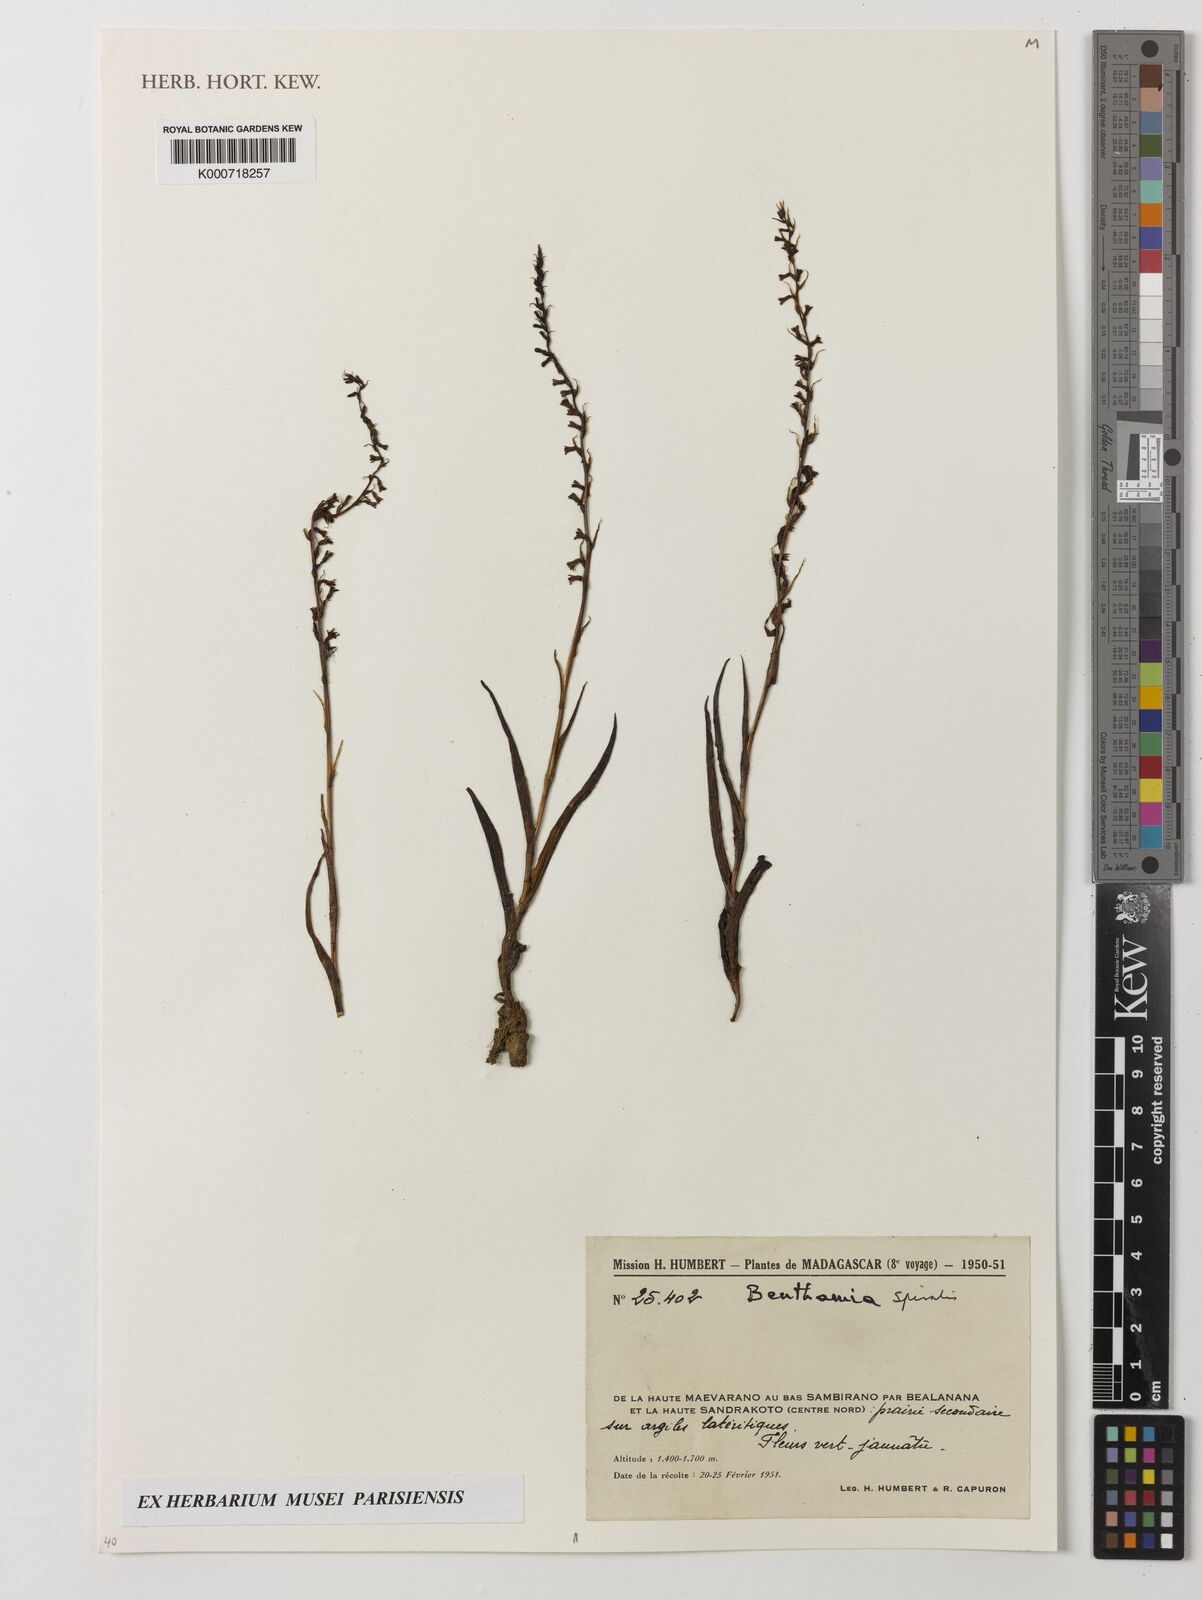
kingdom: Plantae
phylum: Tracheophyta
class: Liliopsida
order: Asparagales
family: Orchidaceae
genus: Benthamia
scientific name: Benthamia
